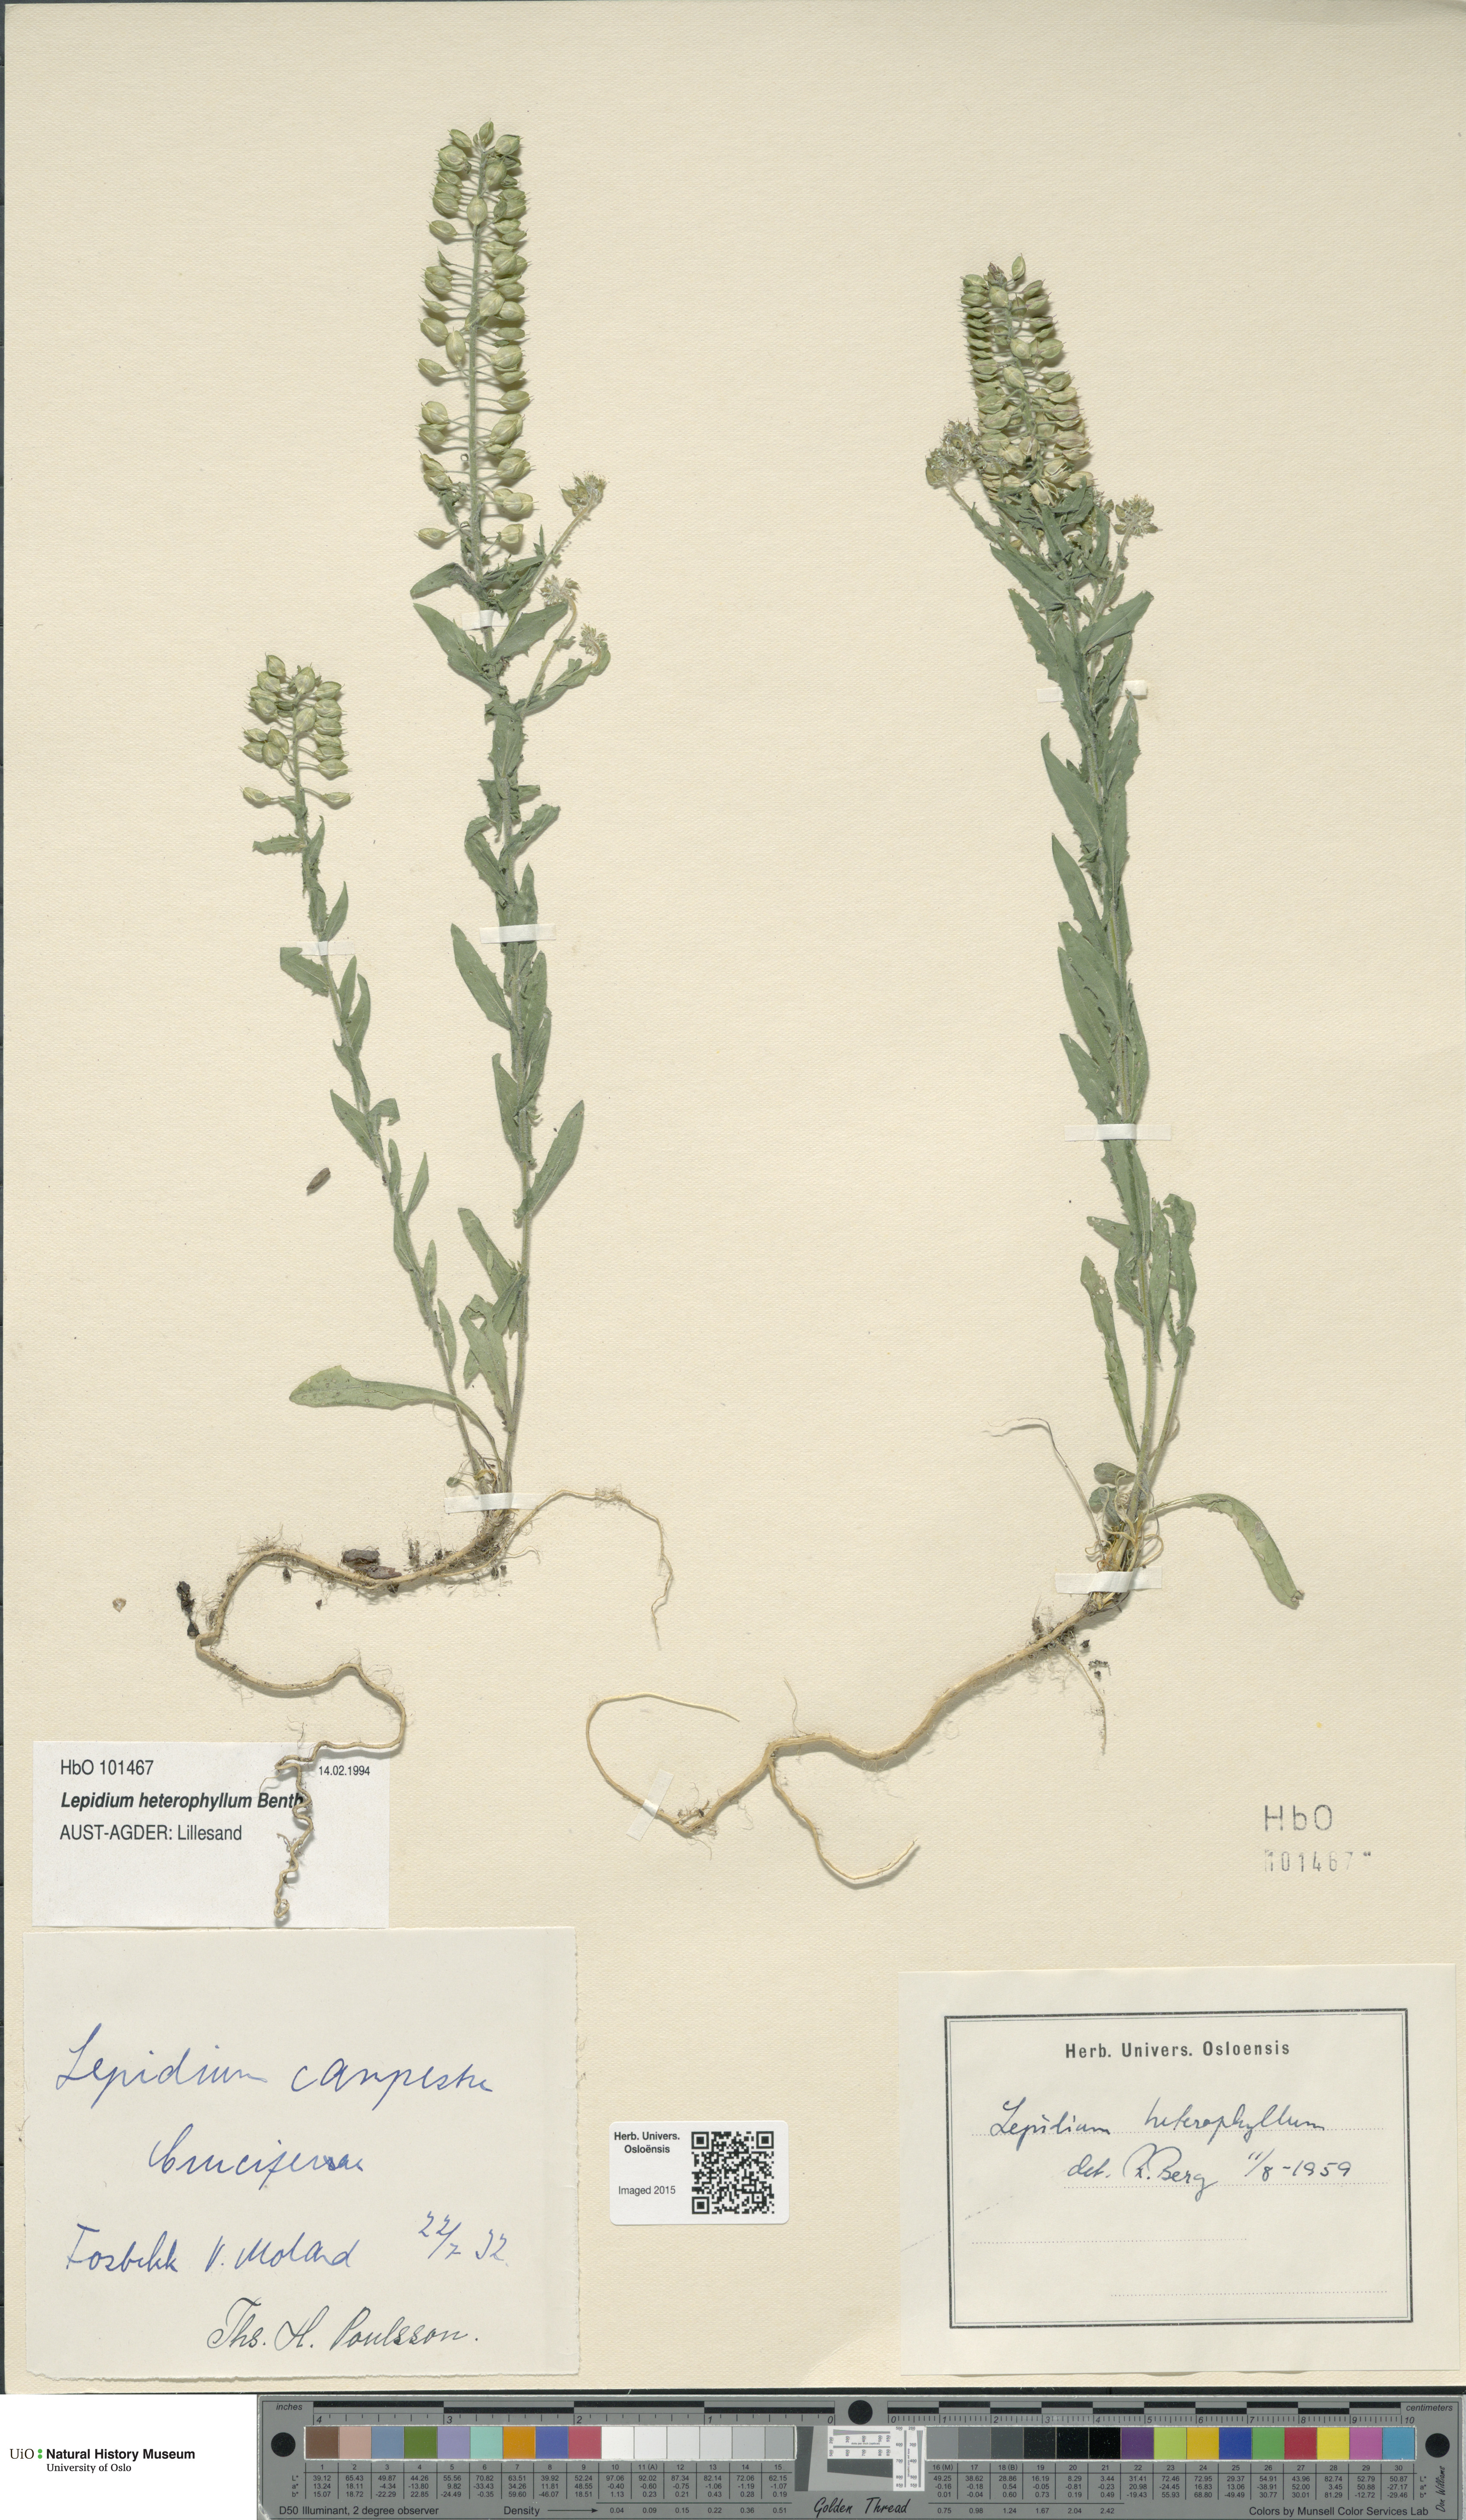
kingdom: Plantae
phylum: Tracheophyta
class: Magnoliopsida
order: Brassicales
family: Brassicaceae
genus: Lepidium
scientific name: Lepidium heterophyllum
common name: Smith's pepperwort
